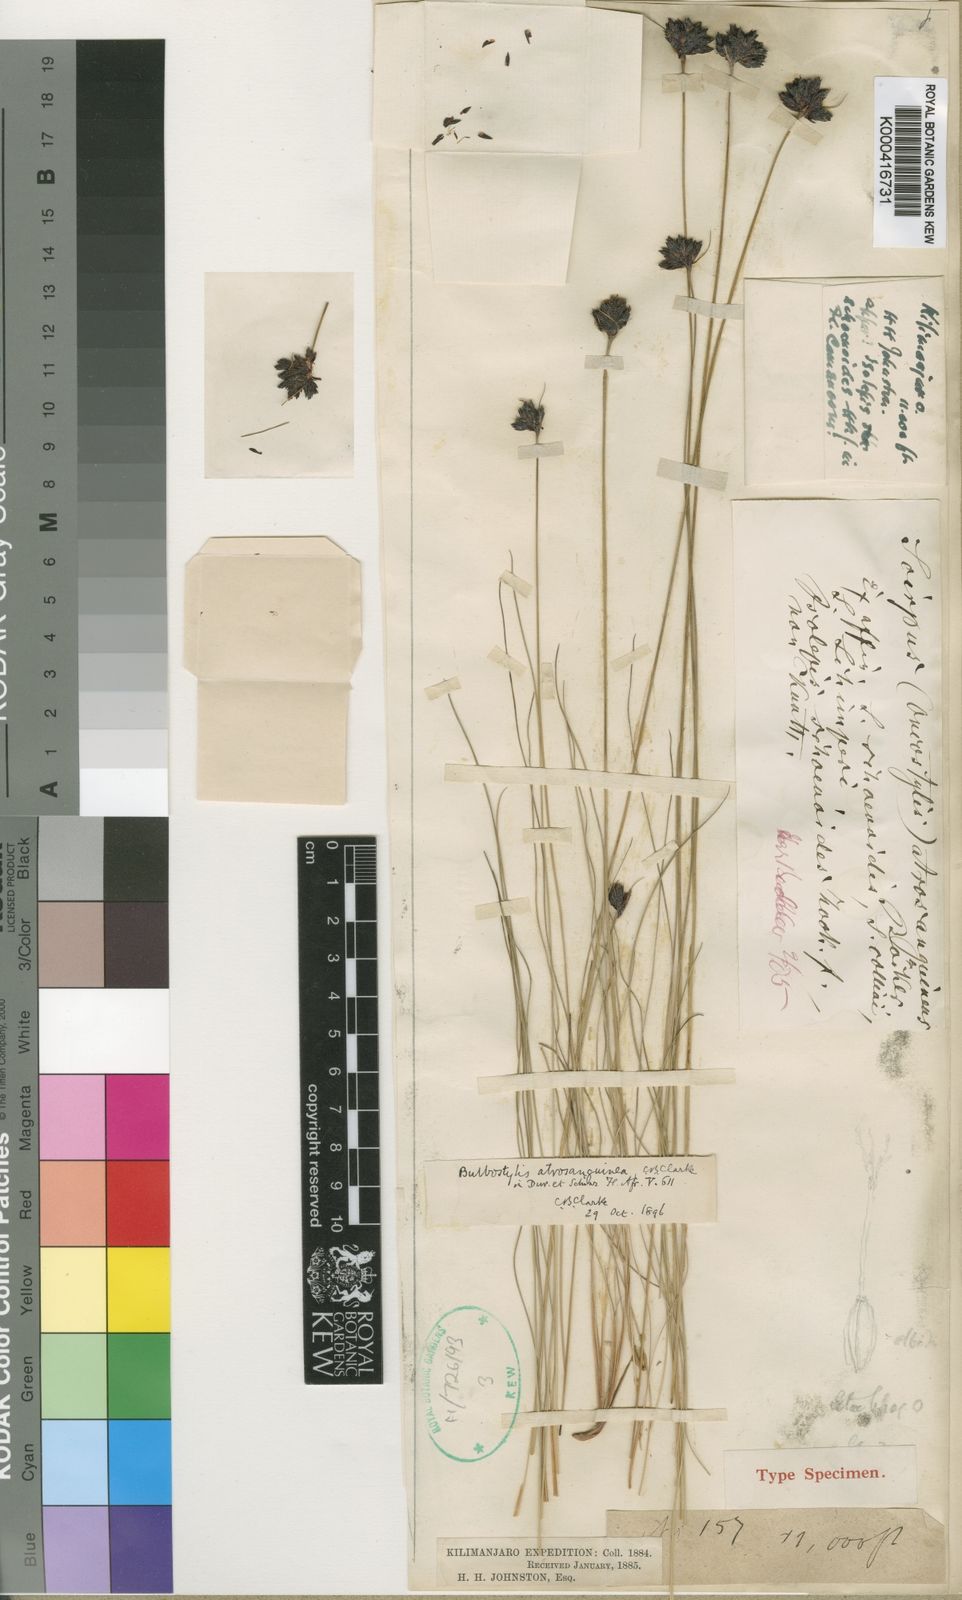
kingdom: Plantae
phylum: Tracheophyta
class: Liliopsida
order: Poales
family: Cyperaceae
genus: Bulbostylis
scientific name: Bulbostylis atrosanguinea
